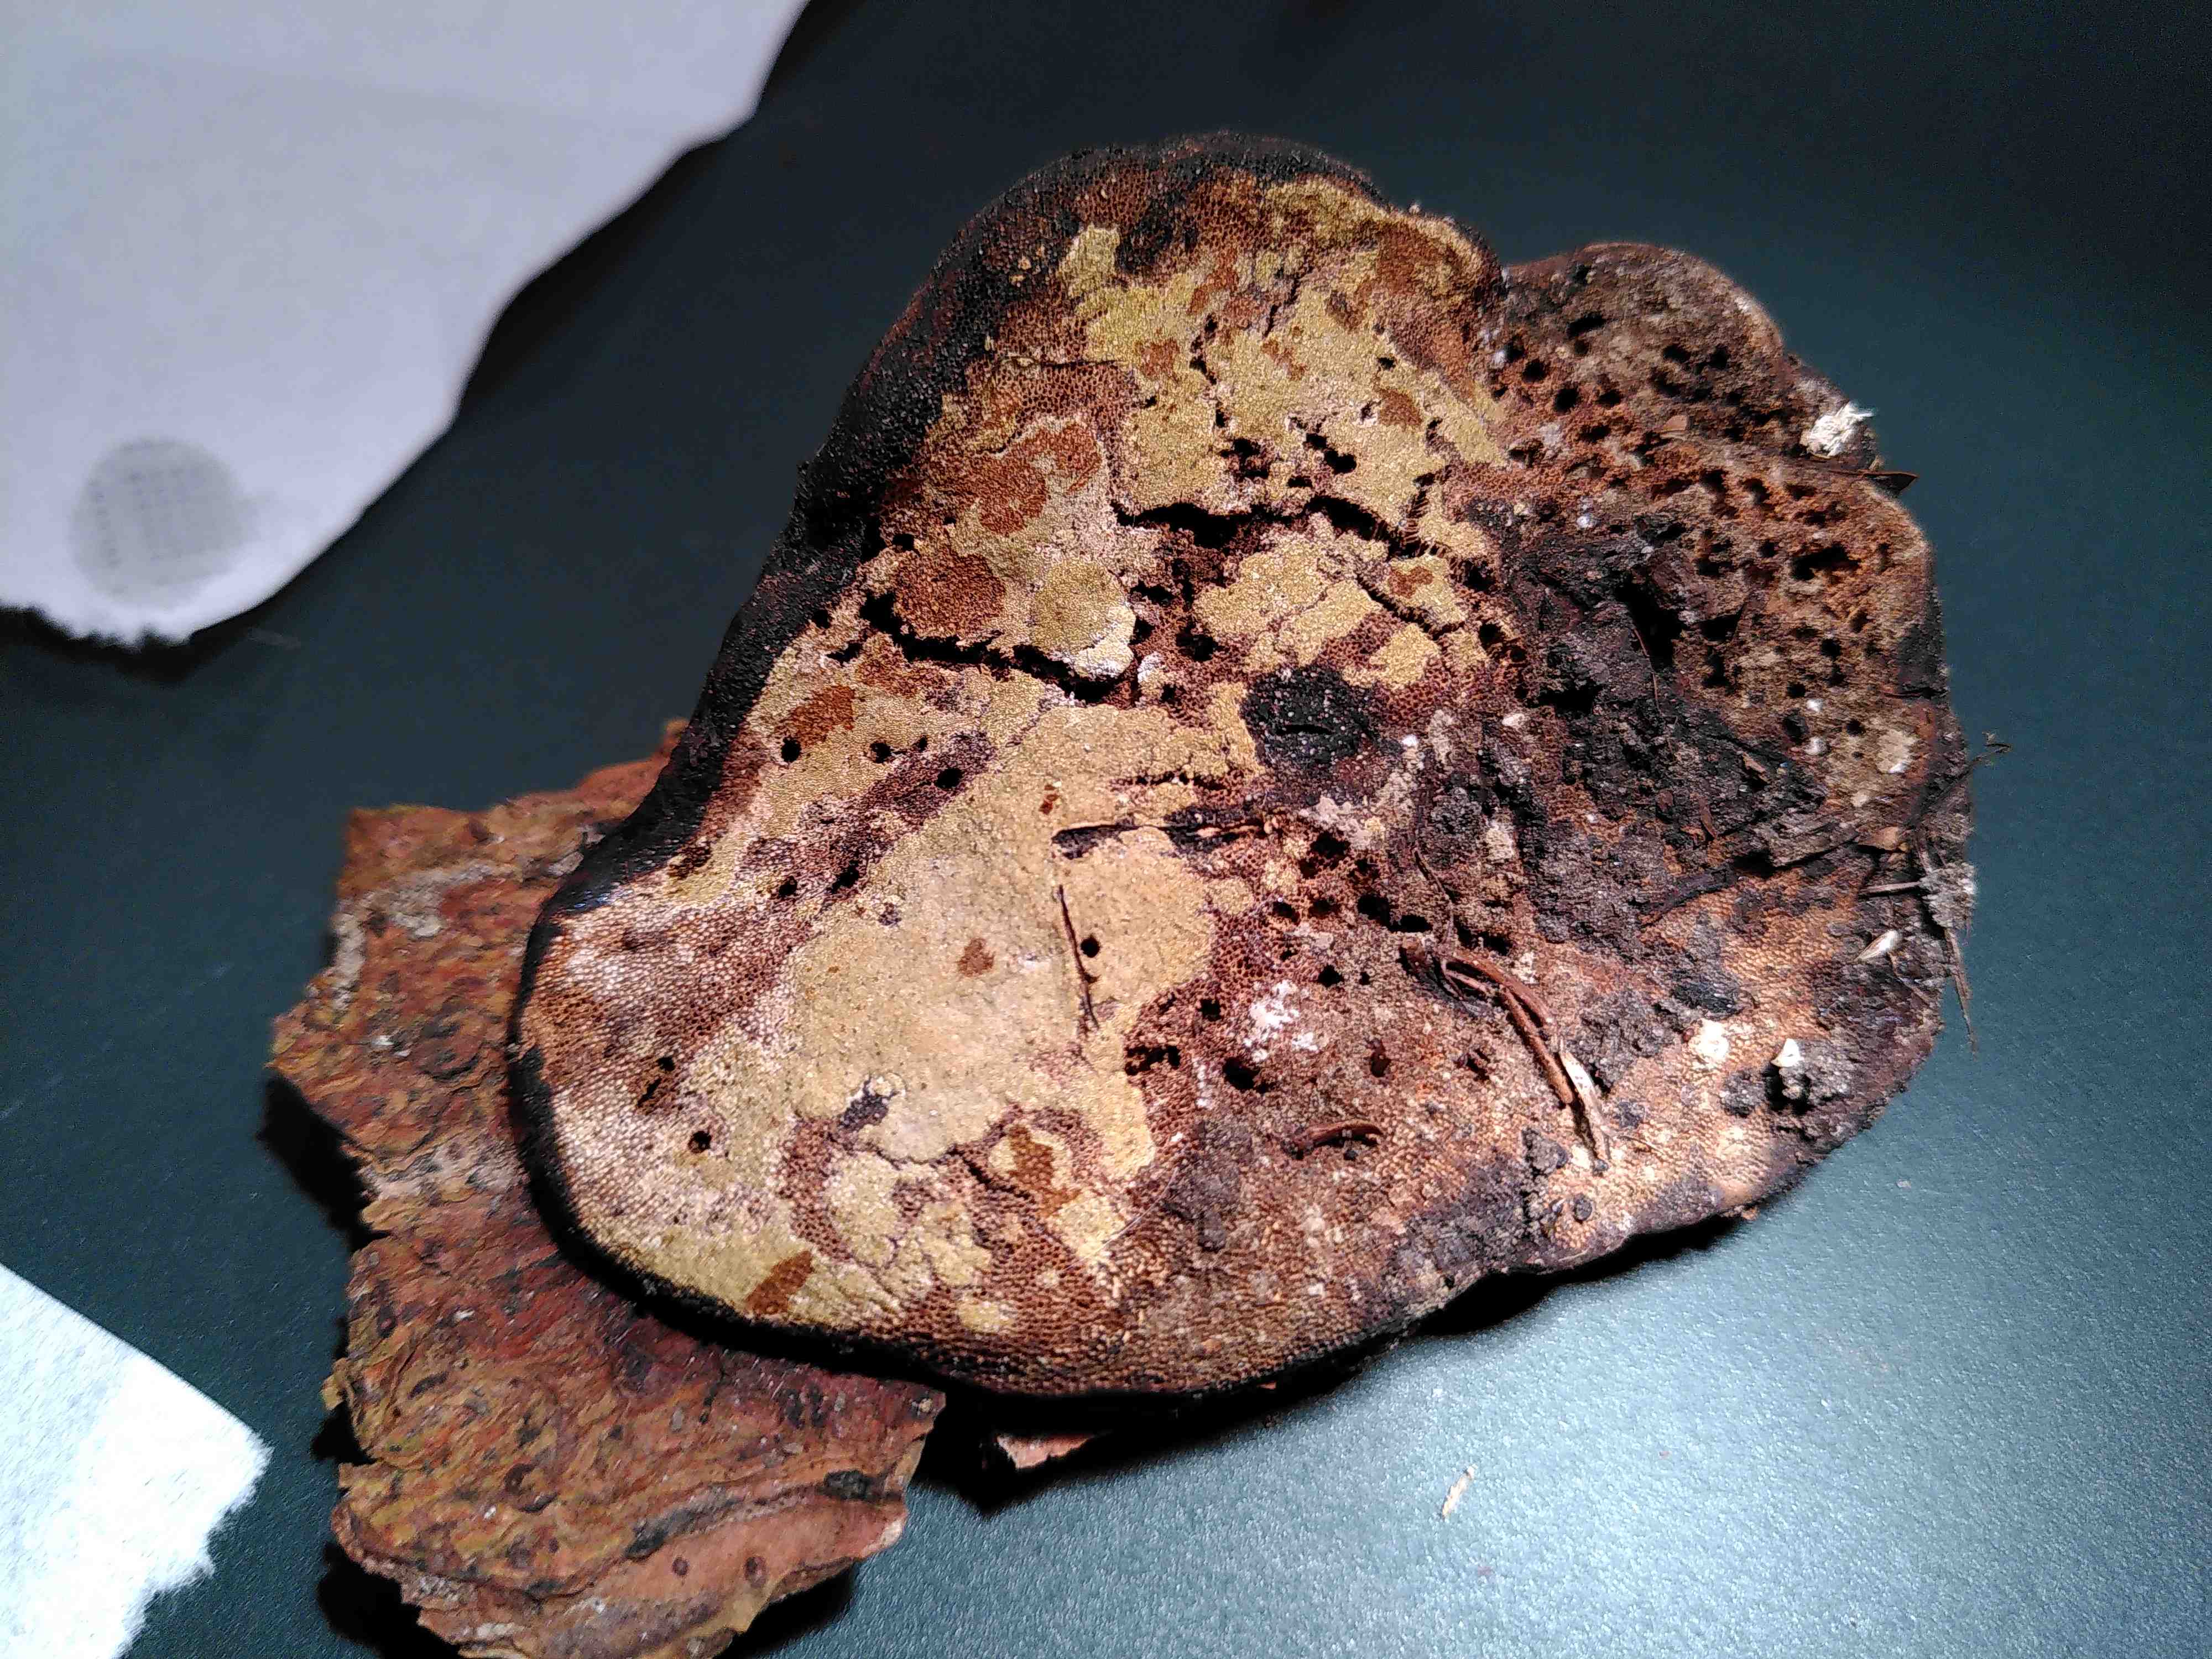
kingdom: Fungi
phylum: Ascomycota
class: Sordariomycetes
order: Hypocreales
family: Hypocreaceae
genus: Trichoderma
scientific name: Trichoderma protopulvinatum
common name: hovpore-kødkerne
